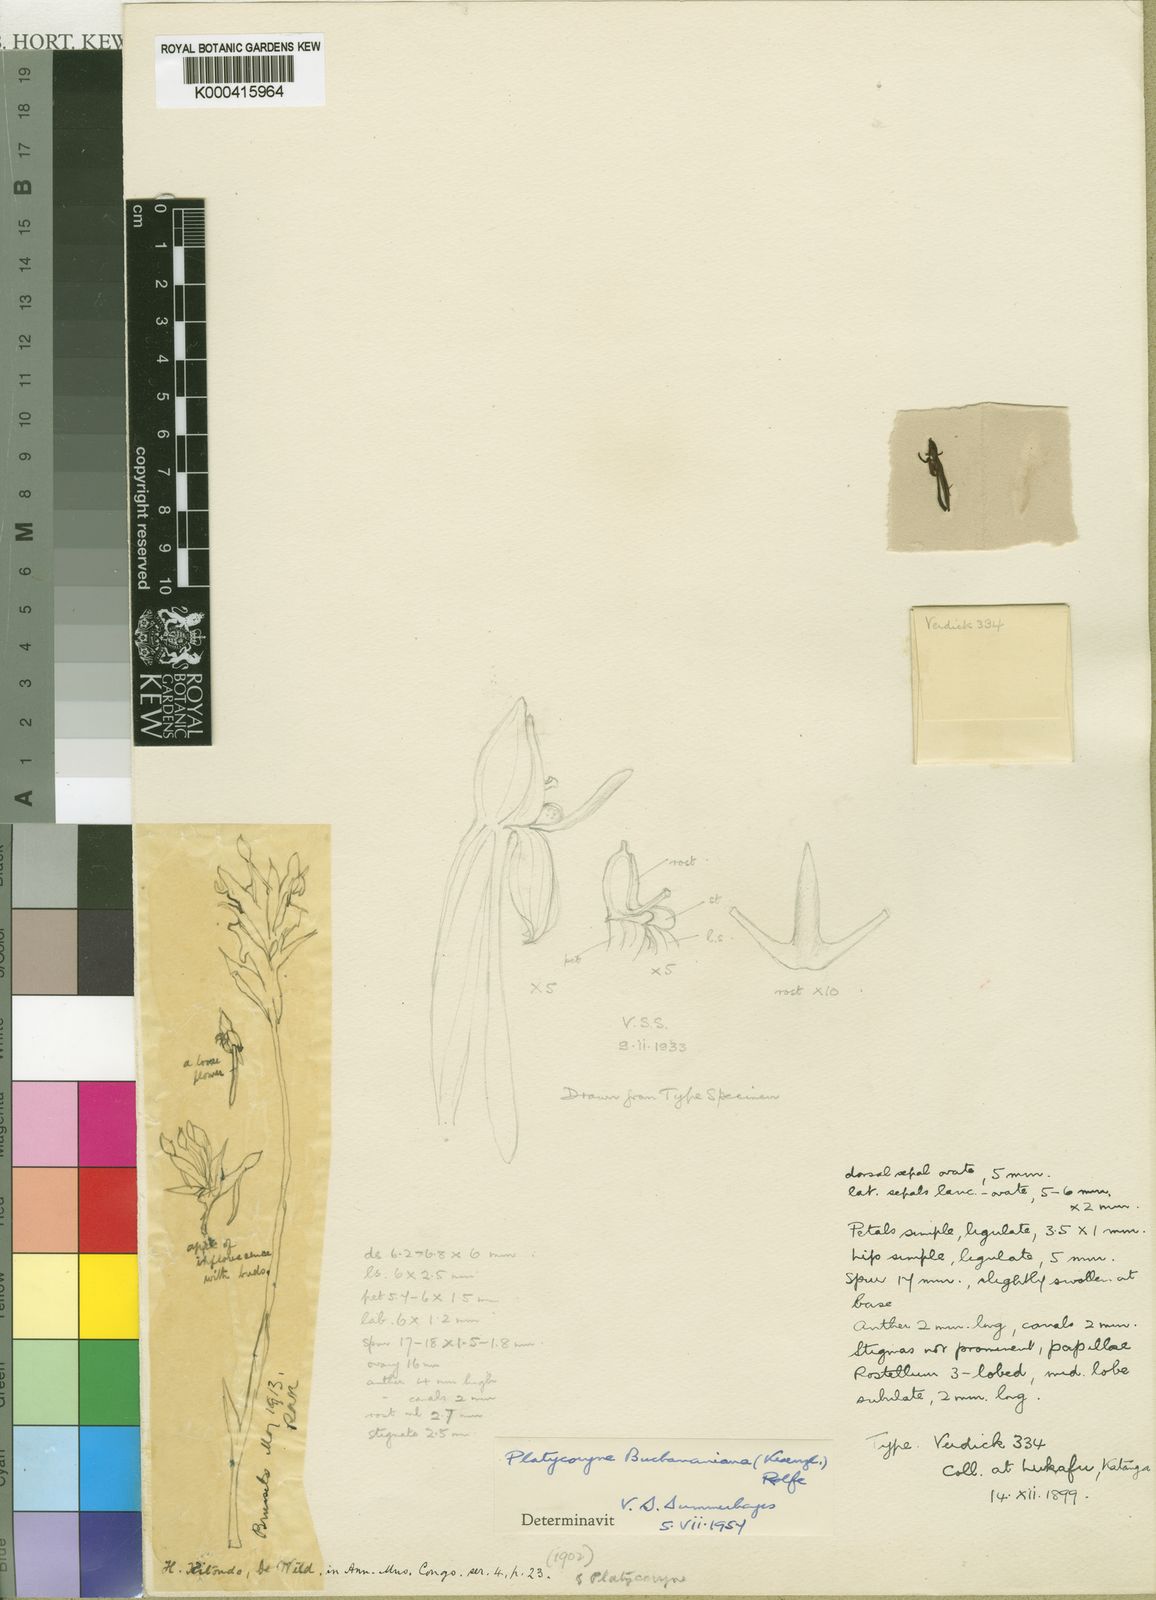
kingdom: Plantae
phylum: Tracheophyta
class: Liliopsida
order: Asparagales
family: Orchidaceae
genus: Platycoryne
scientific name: Platycoryne buchananiana
